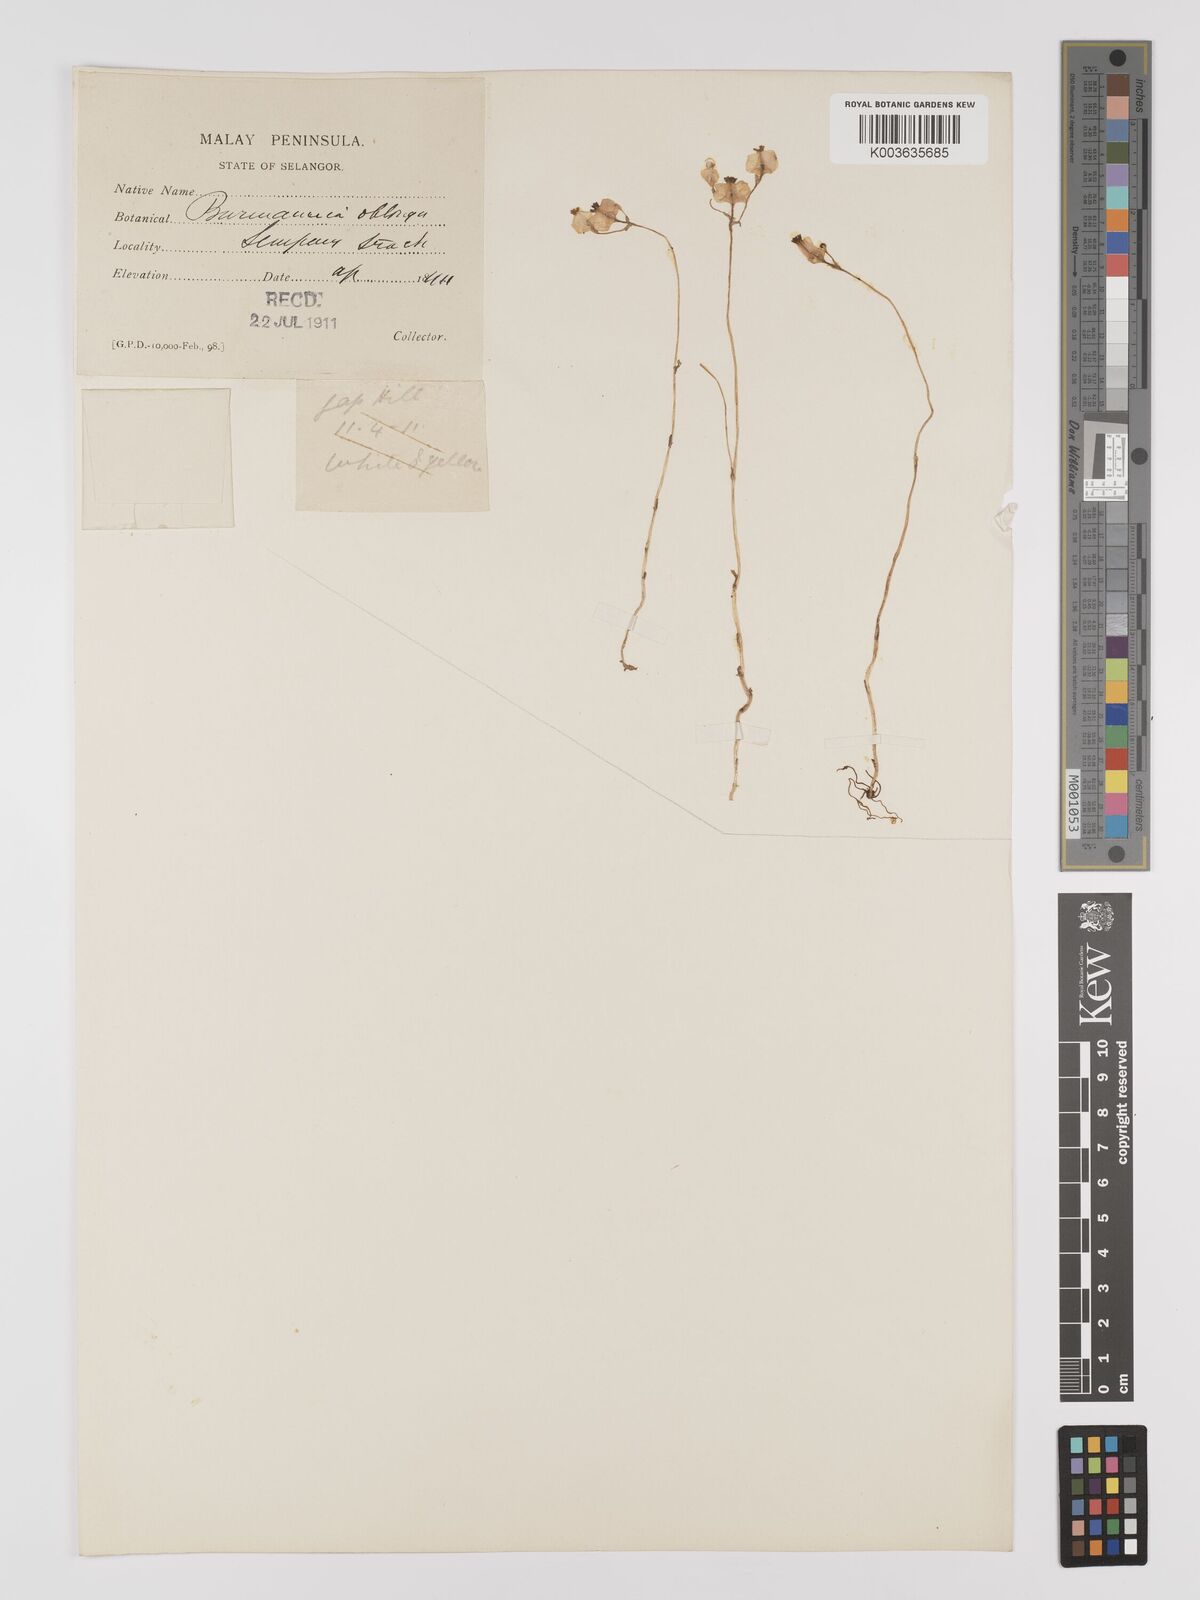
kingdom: Plantae
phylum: Tracheophyta
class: Liliopsida
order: Dioscoreales
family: Burmanniaceae
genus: Burmannia
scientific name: Burmannia oblonga
